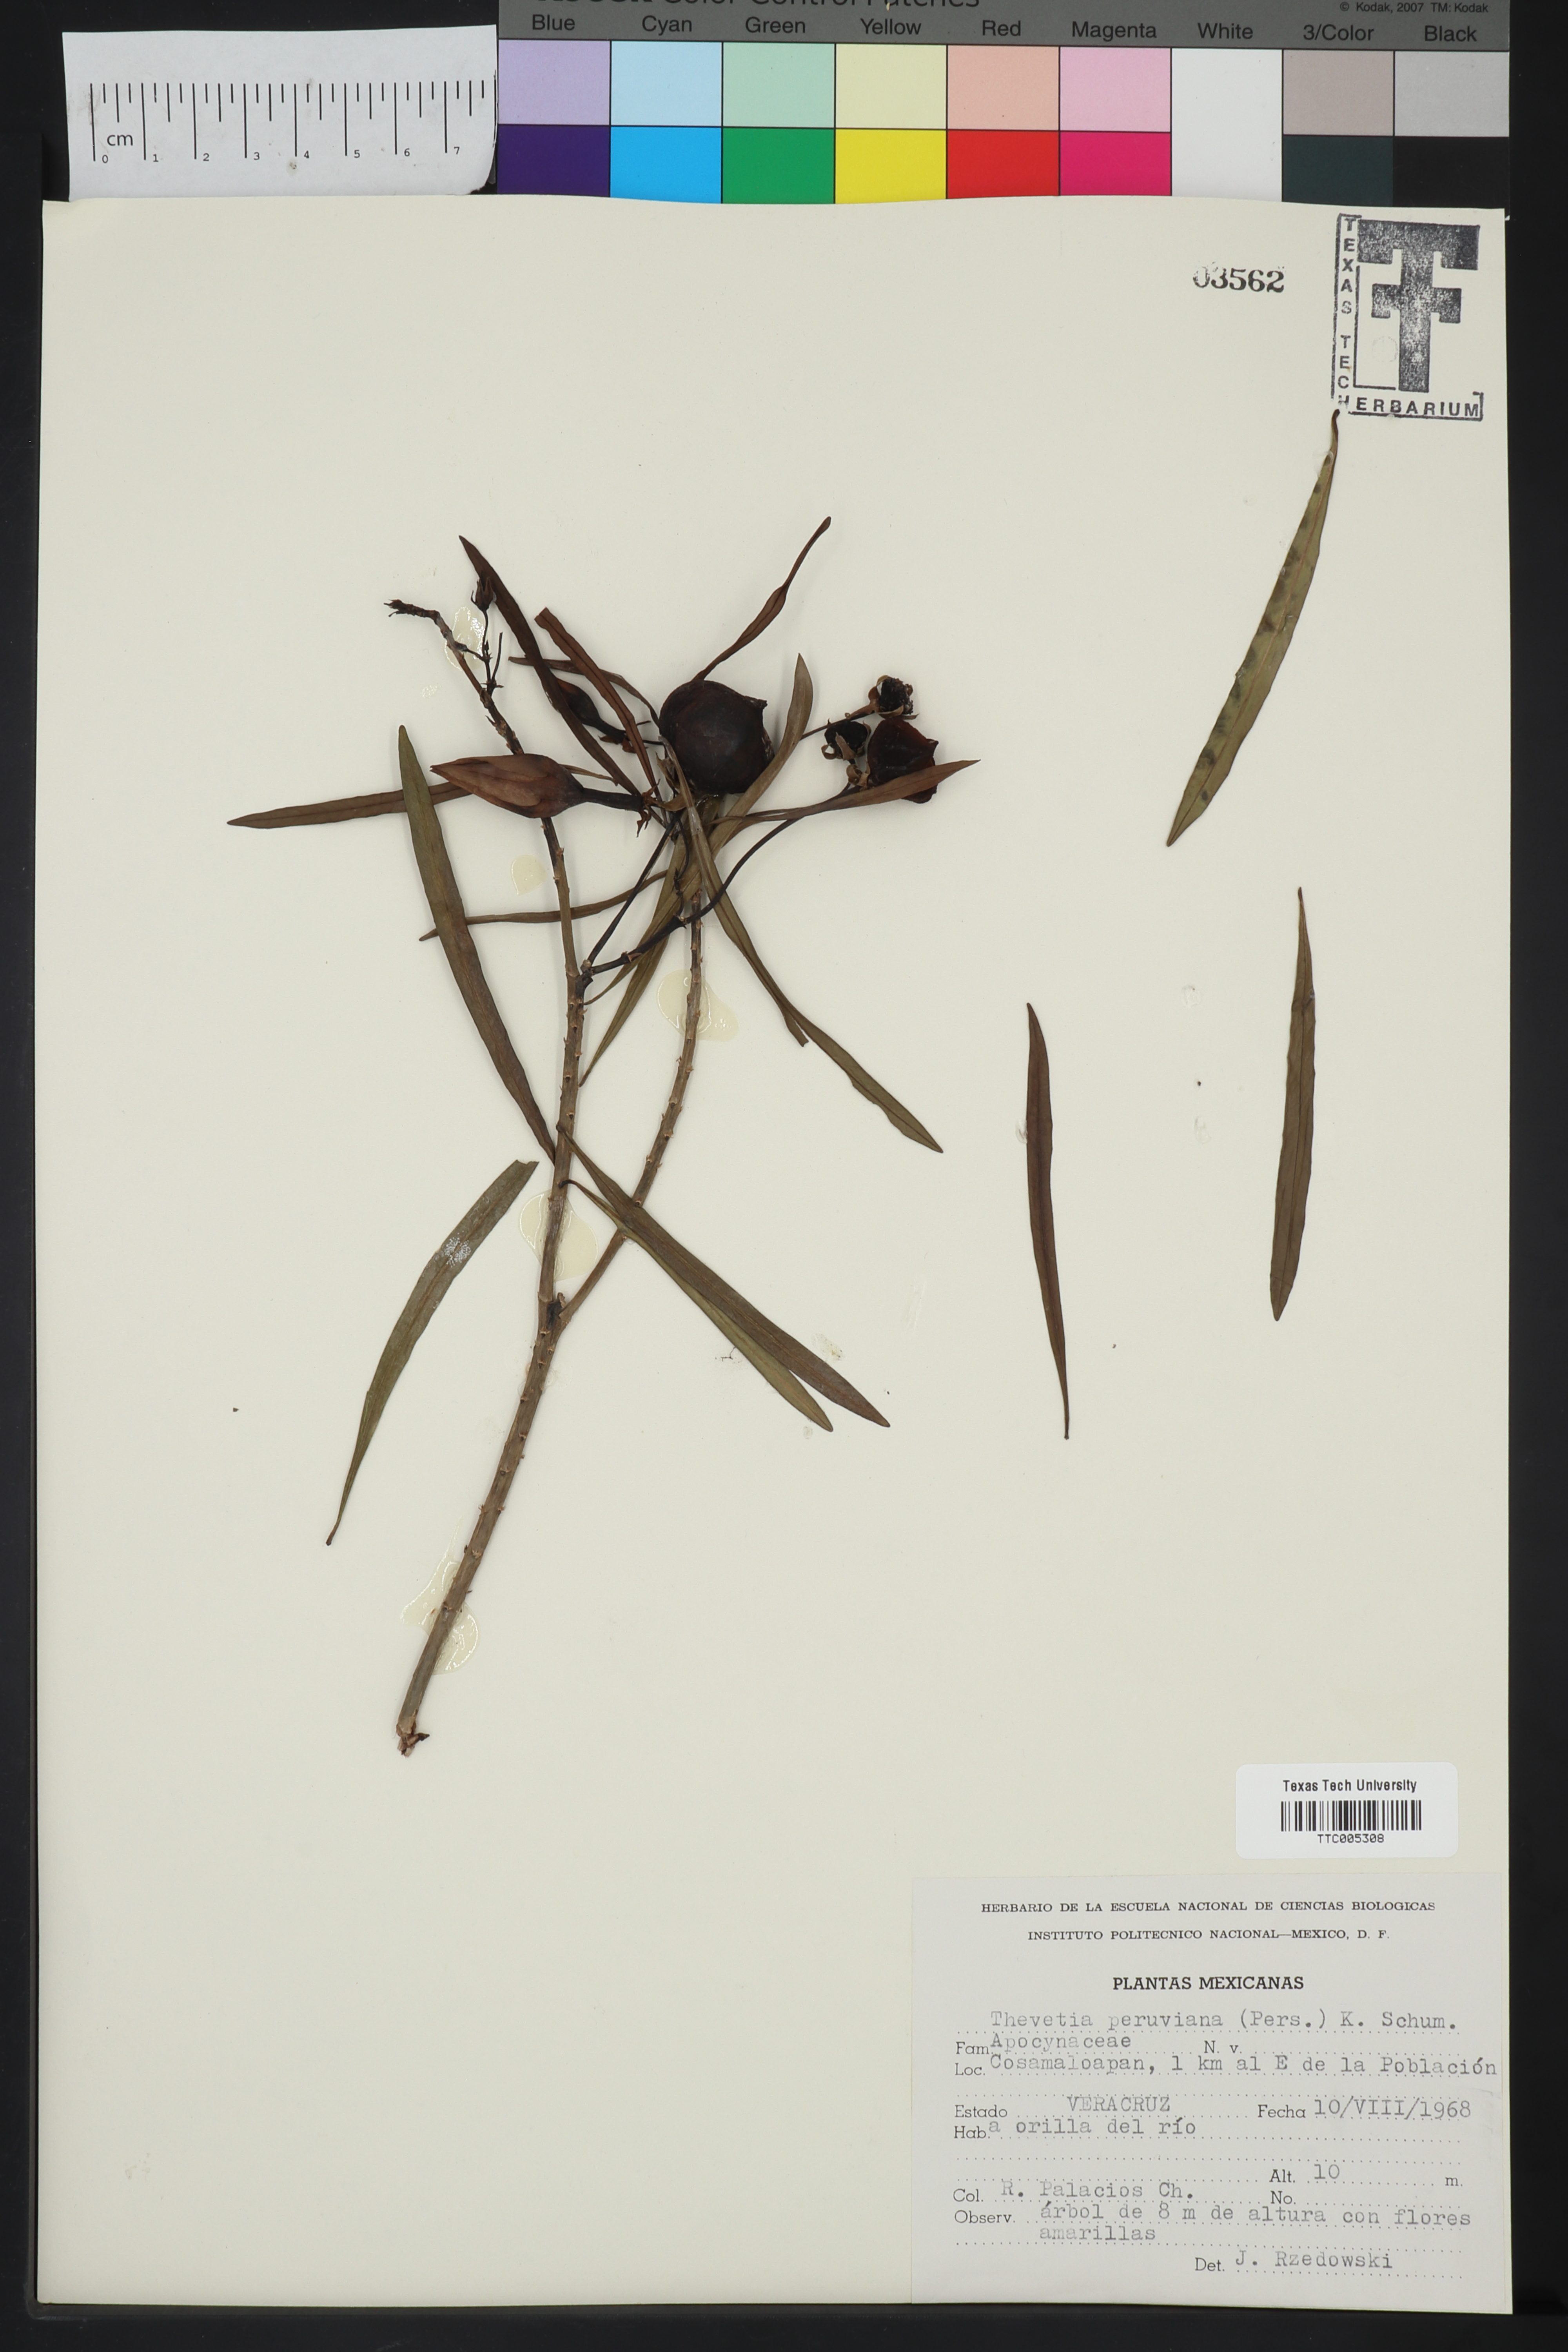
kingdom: Plantae
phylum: Tracheophyta
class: Magnoliopsida
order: Gentianales
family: Apocynaceae
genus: Cascabela
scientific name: Cascabela thevetia
